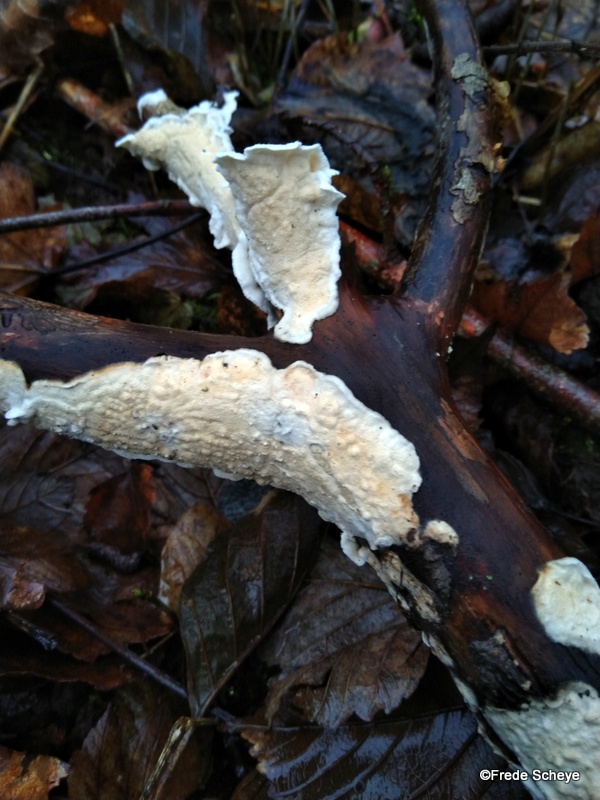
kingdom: Fungi
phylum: Basidiomycota
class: Agaricomycetes
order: Polyporales
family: Irpicaceae
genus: Byssomerulius
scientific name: Byssomerulius corium
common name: læder-åresvamp
